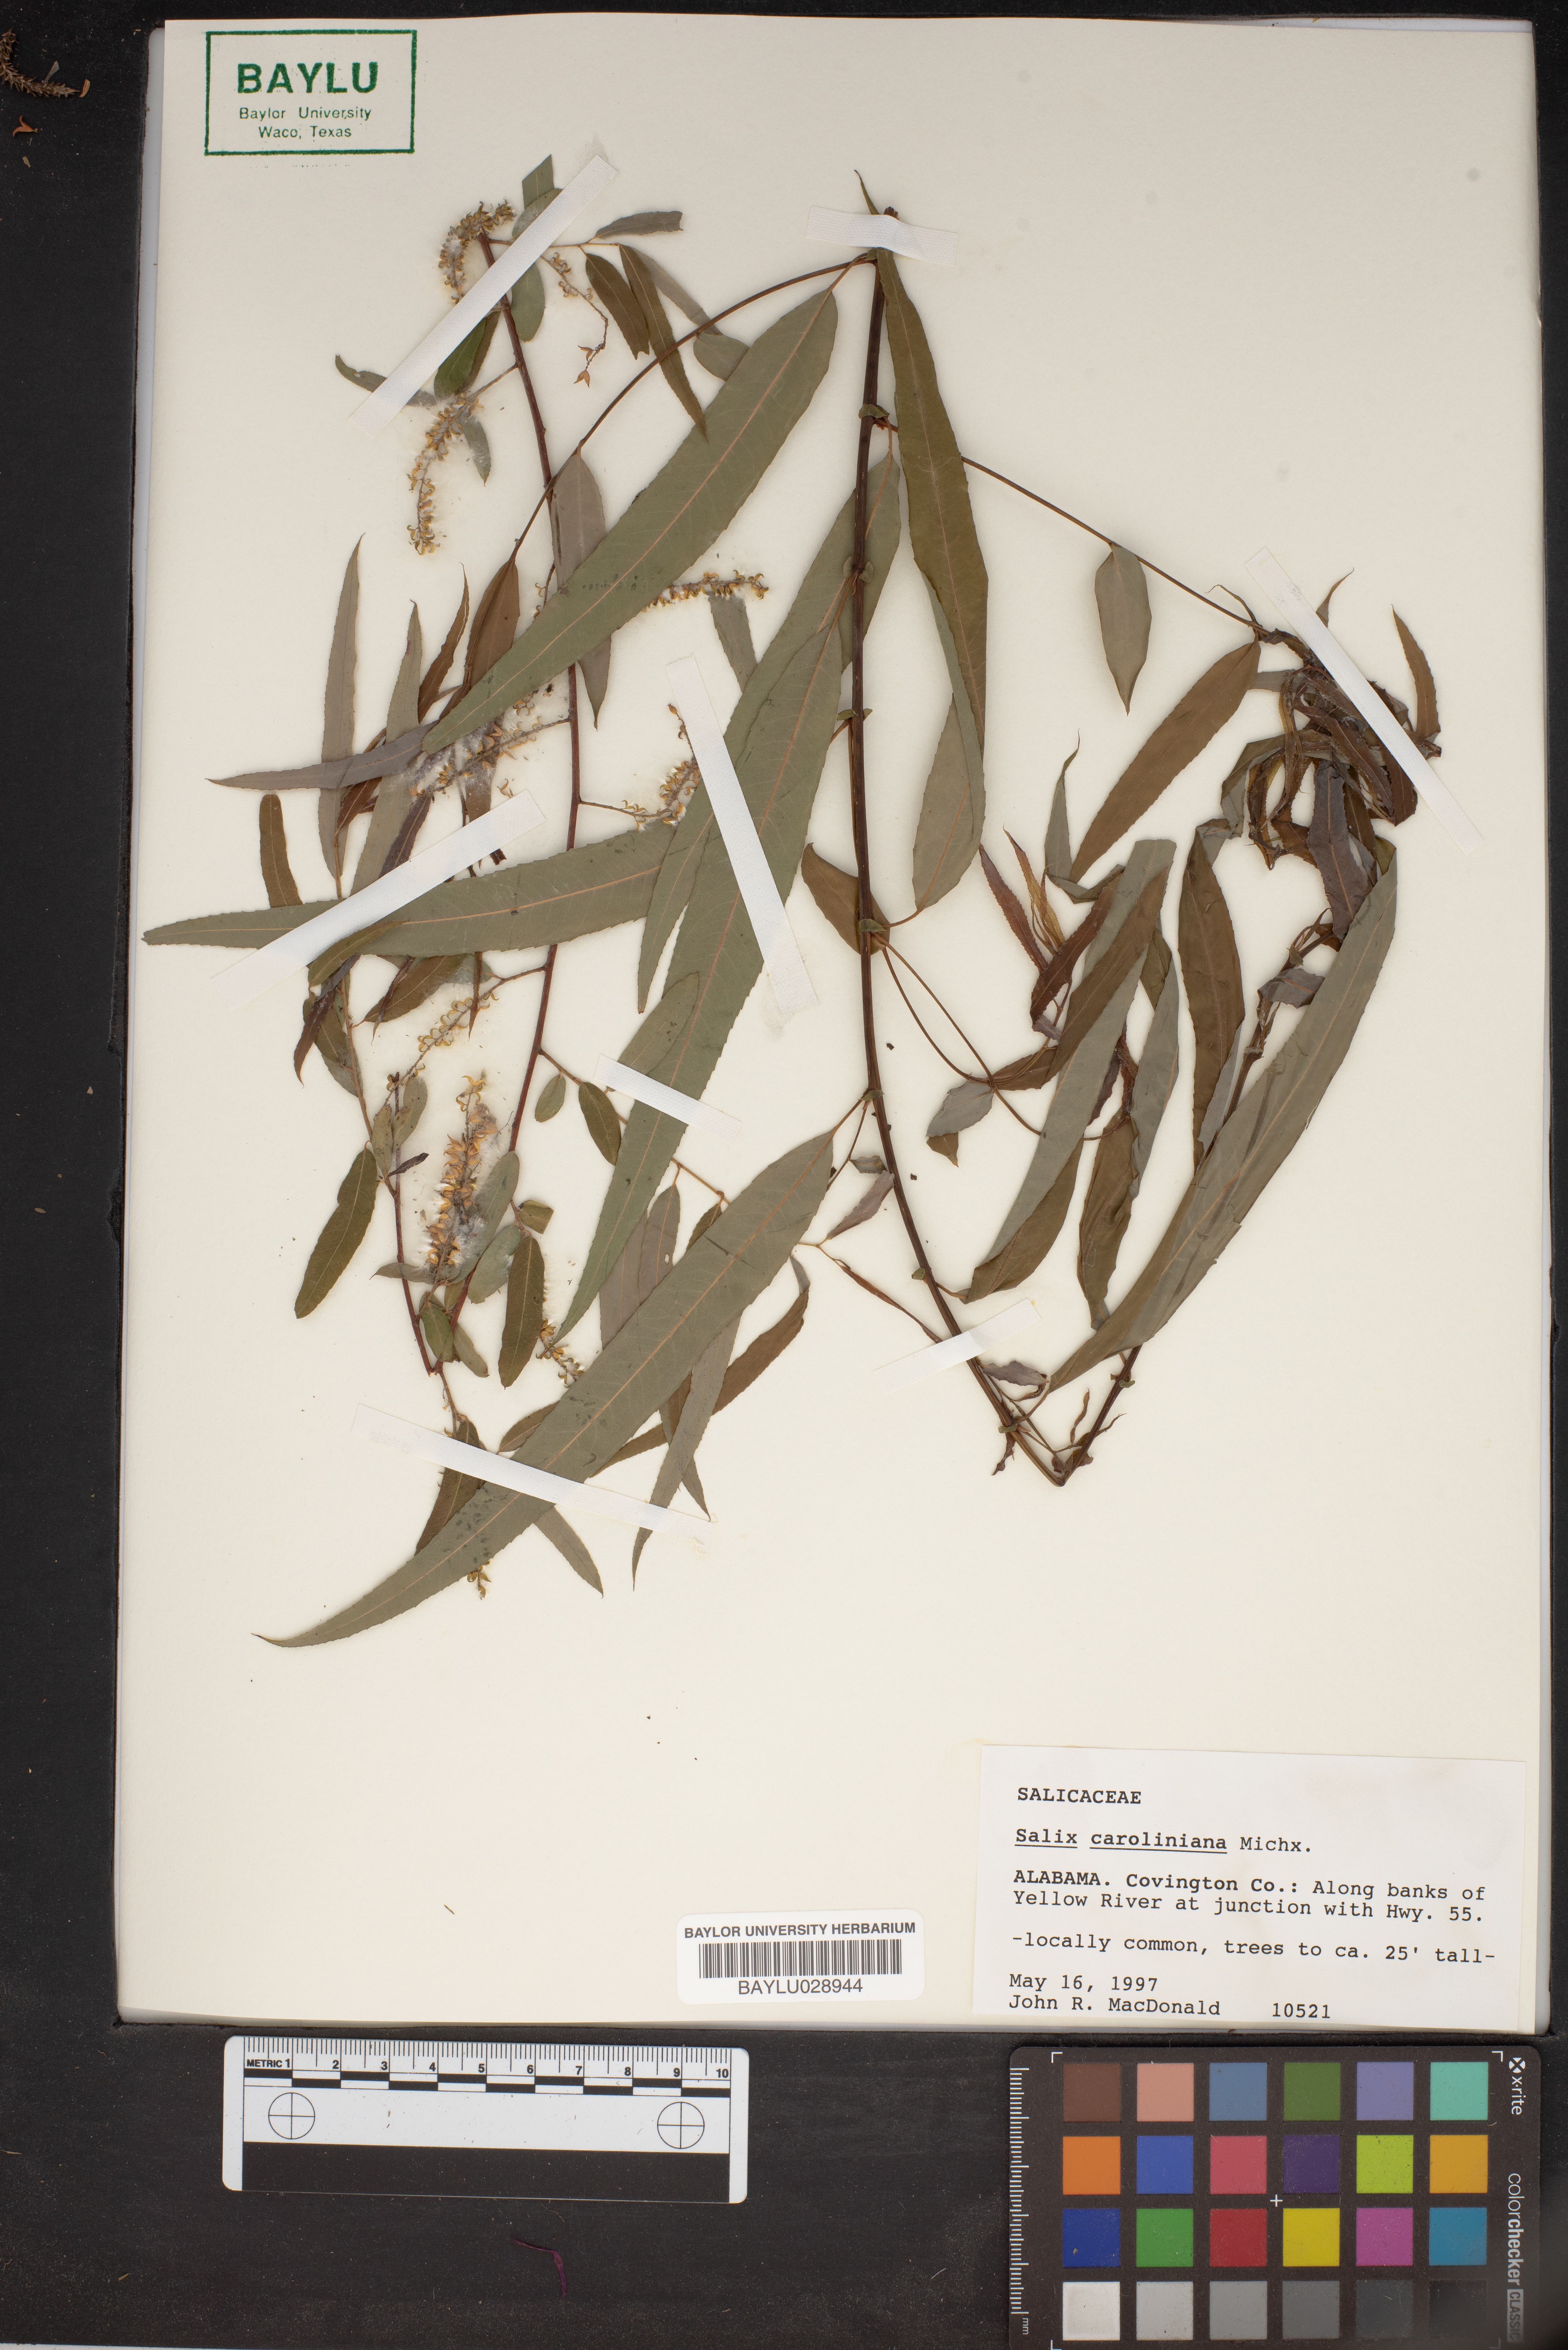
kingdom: Plantae
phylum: Tracheophyta
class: Magnoliopsida
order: Malpighiales
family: Salicaceae
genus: Salix
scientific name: Salix caroliniana
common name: Carolina willow
